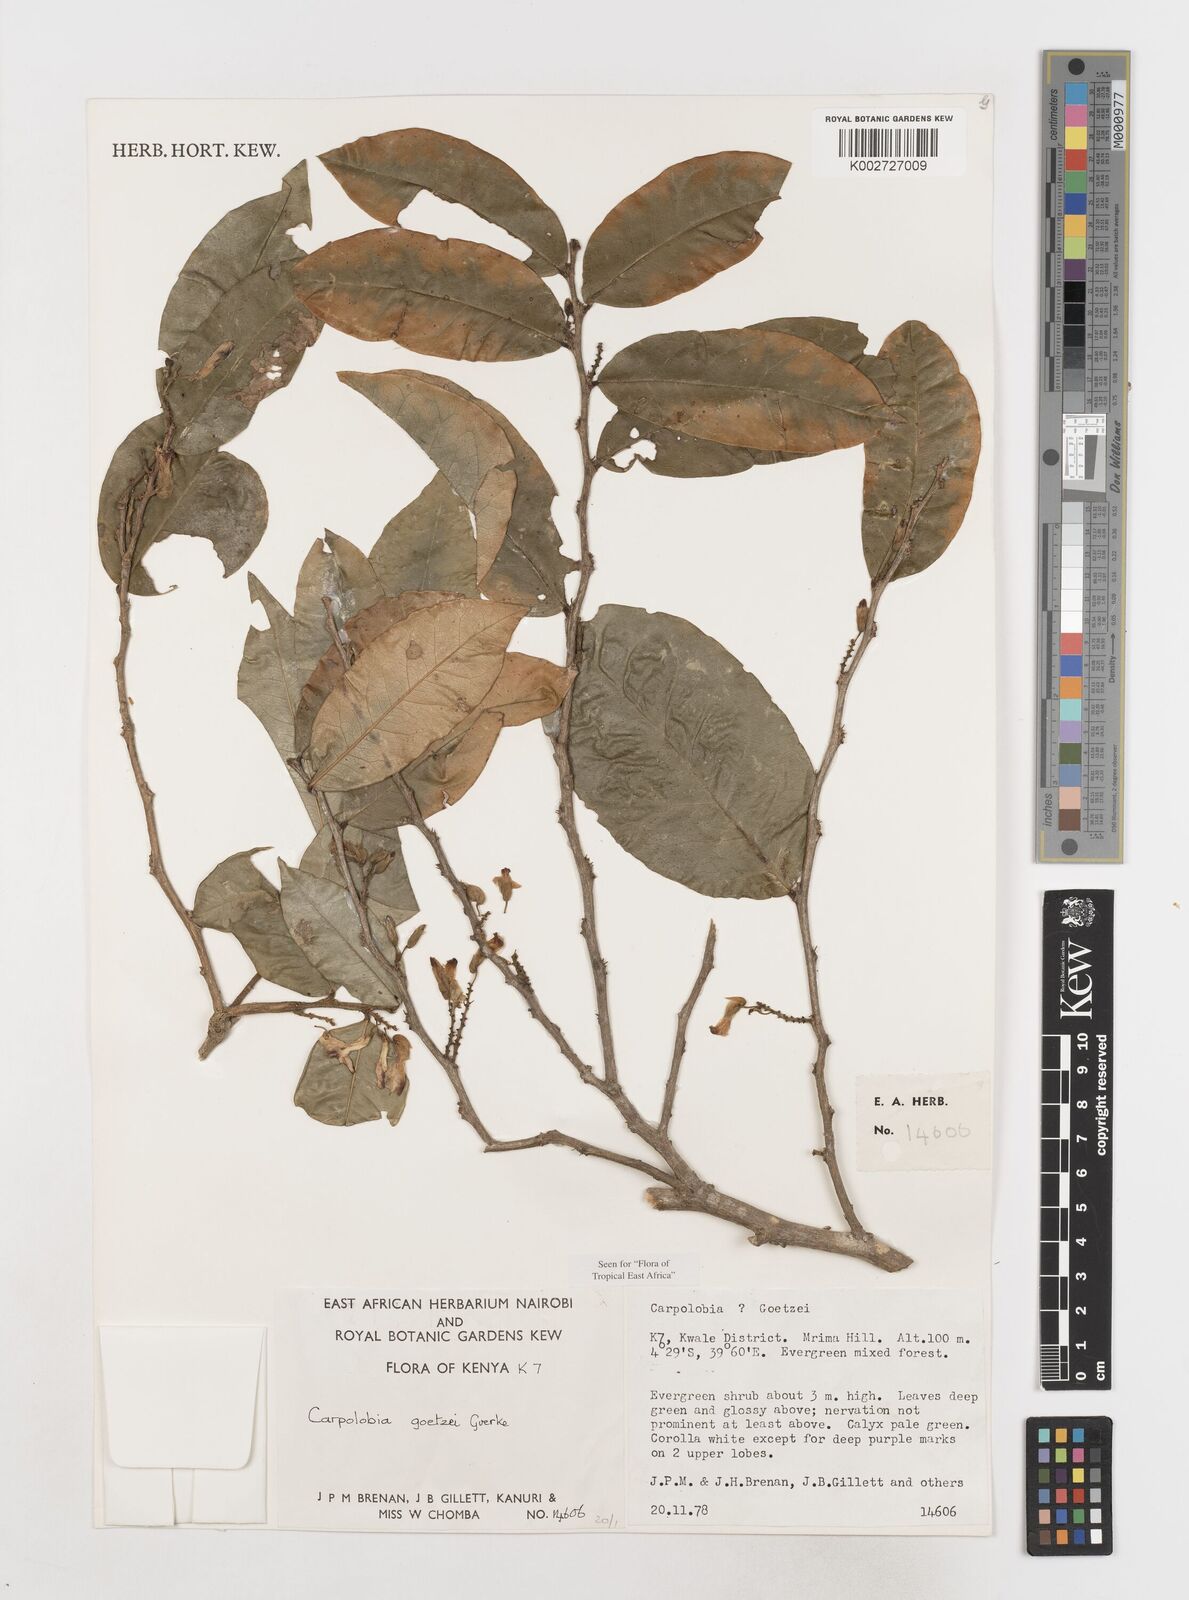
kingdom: Plantae
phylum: Tracheophyta
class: Magnoliopsida
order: Fabales
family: Polygalaceae
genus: Carpolobia
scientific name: Carpolobia goetzei
